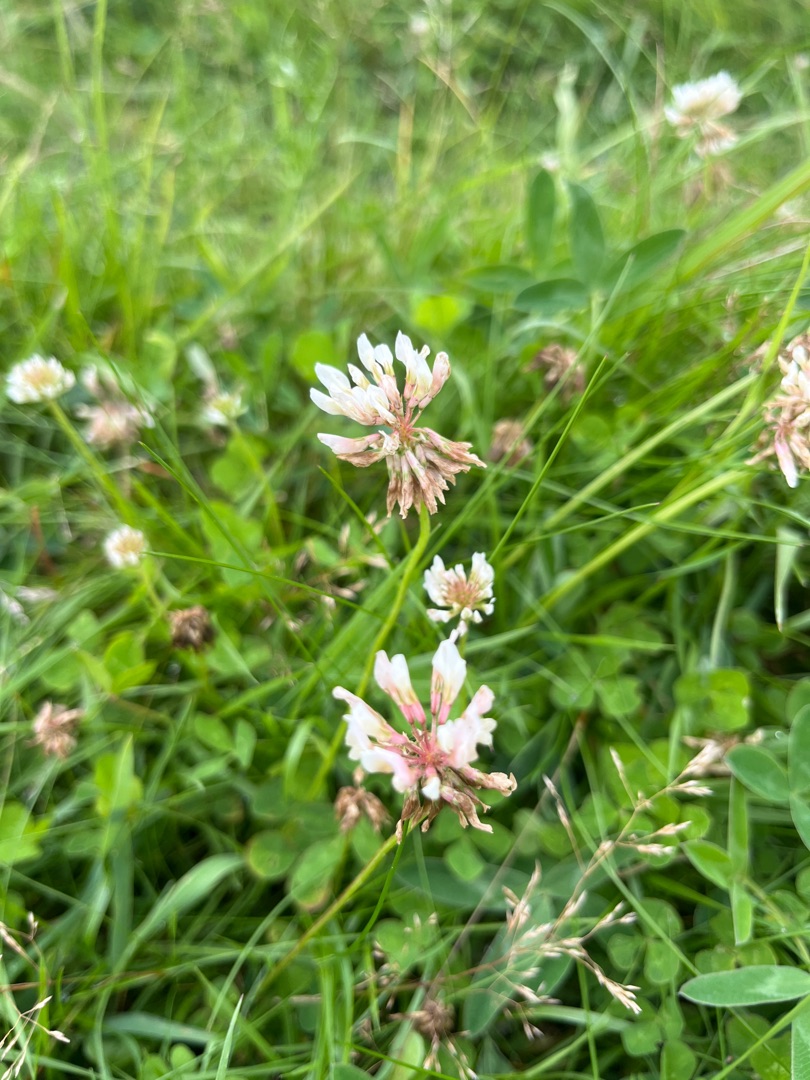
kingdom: Plantae
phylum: Tracheophyta
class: Magnoliopsida
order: Fabales
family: Fabaceae
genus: Trifolium
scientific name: Trifolium repens
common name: Hvid-kløver
